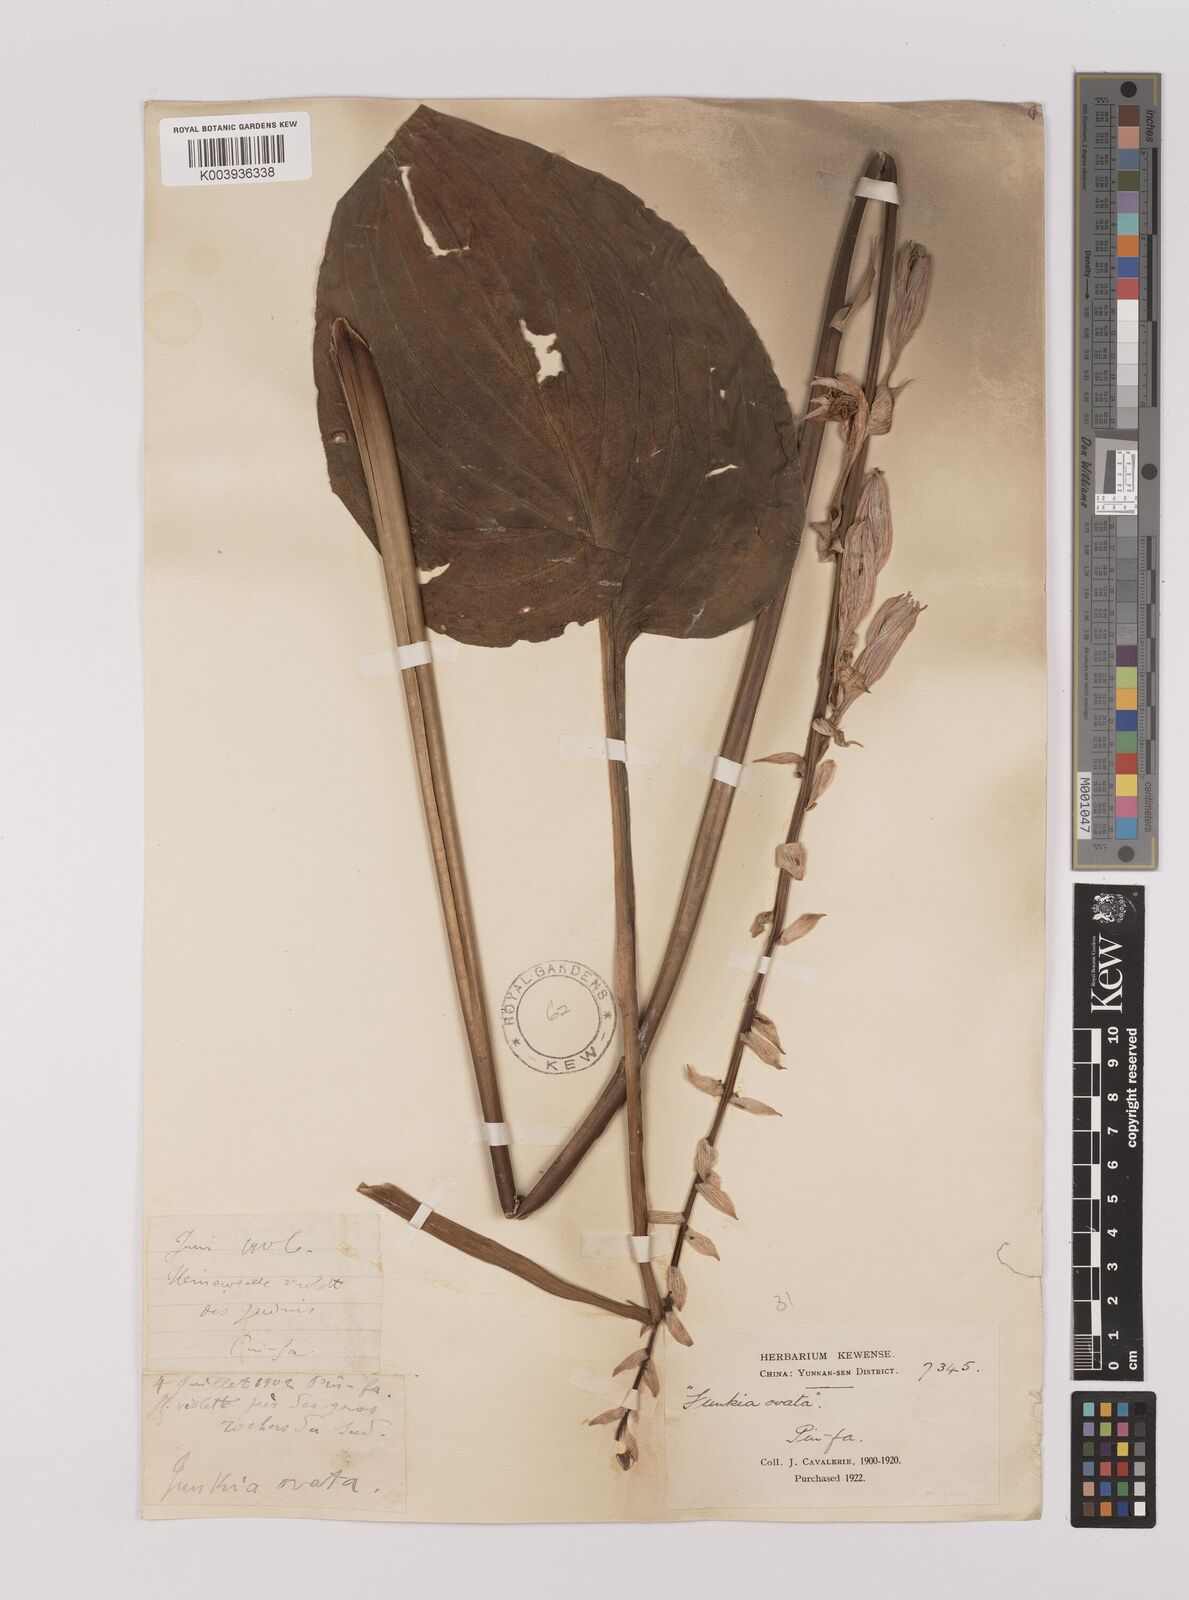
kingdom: Plantae
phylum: Tracheophyta
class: Liliopsida
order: Asparagales
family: Asparagaceae
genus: Hosta
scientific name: Hosta ventricosa
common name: Blue plantain-lily
